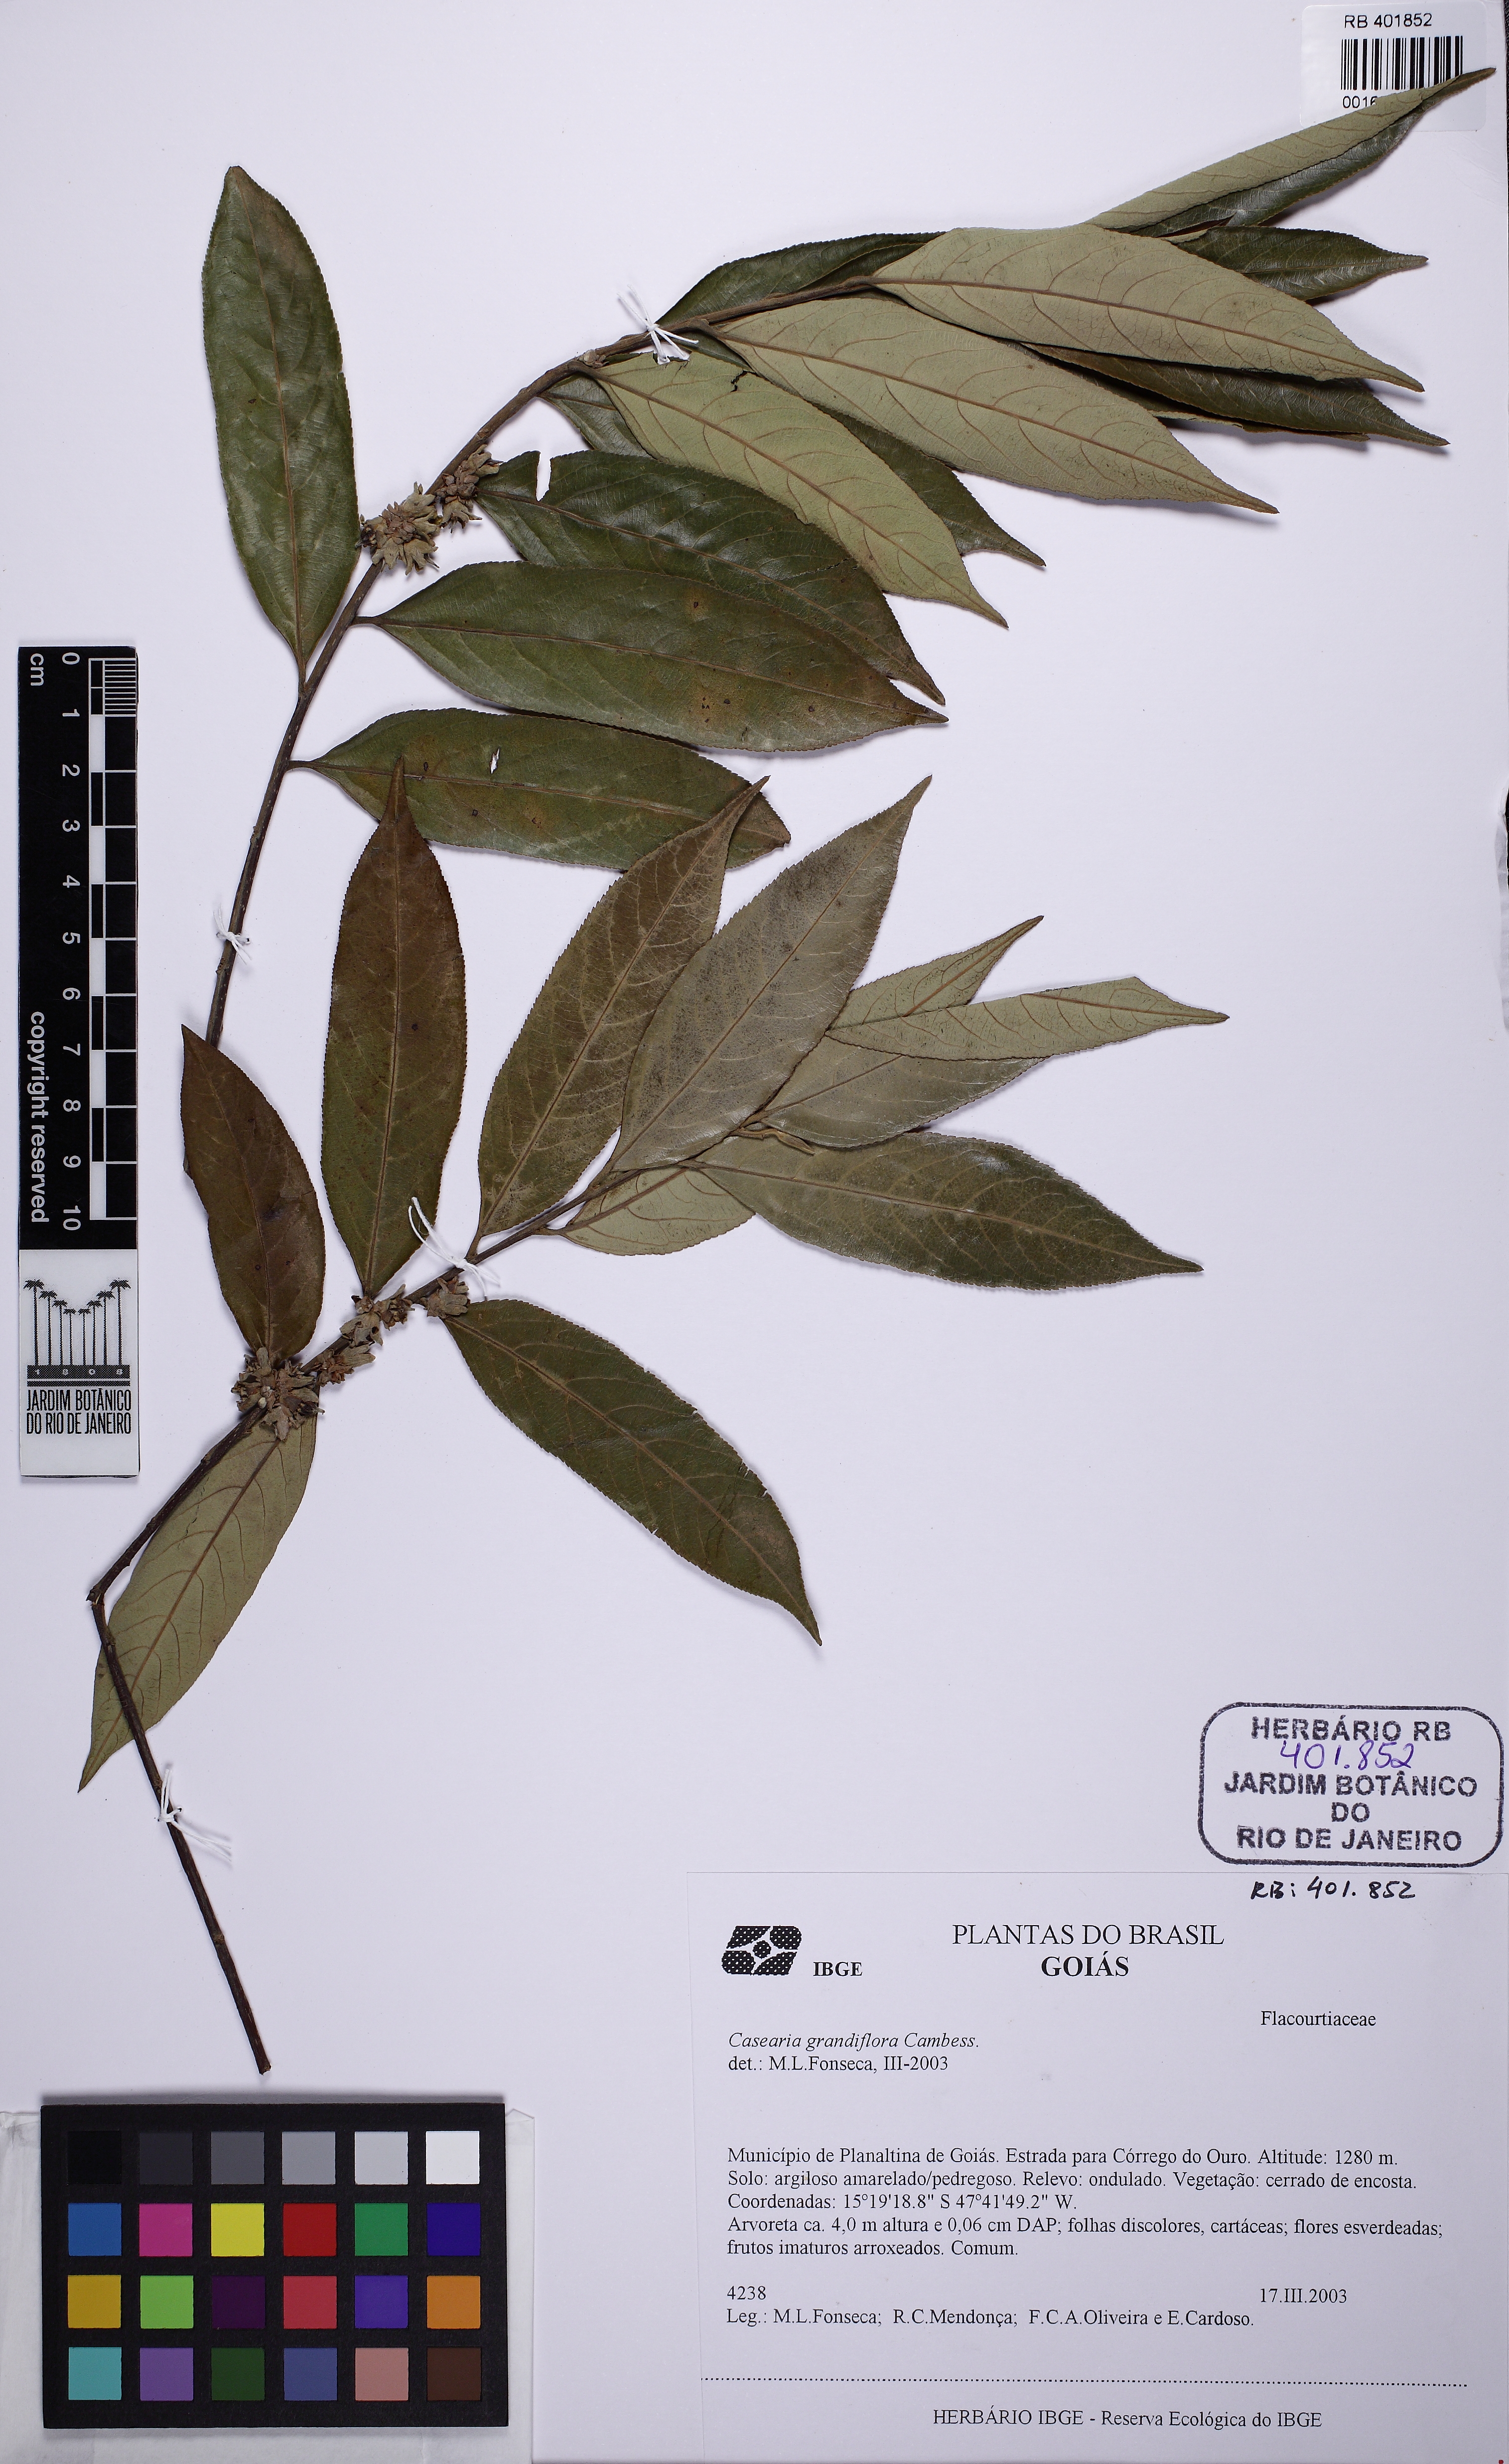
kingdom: Plantae
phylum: Tracheophyta
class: Magnoliopsida
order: Malpighiales
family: Salicaceae
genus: Casearia
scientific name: Casearia grandiflora
